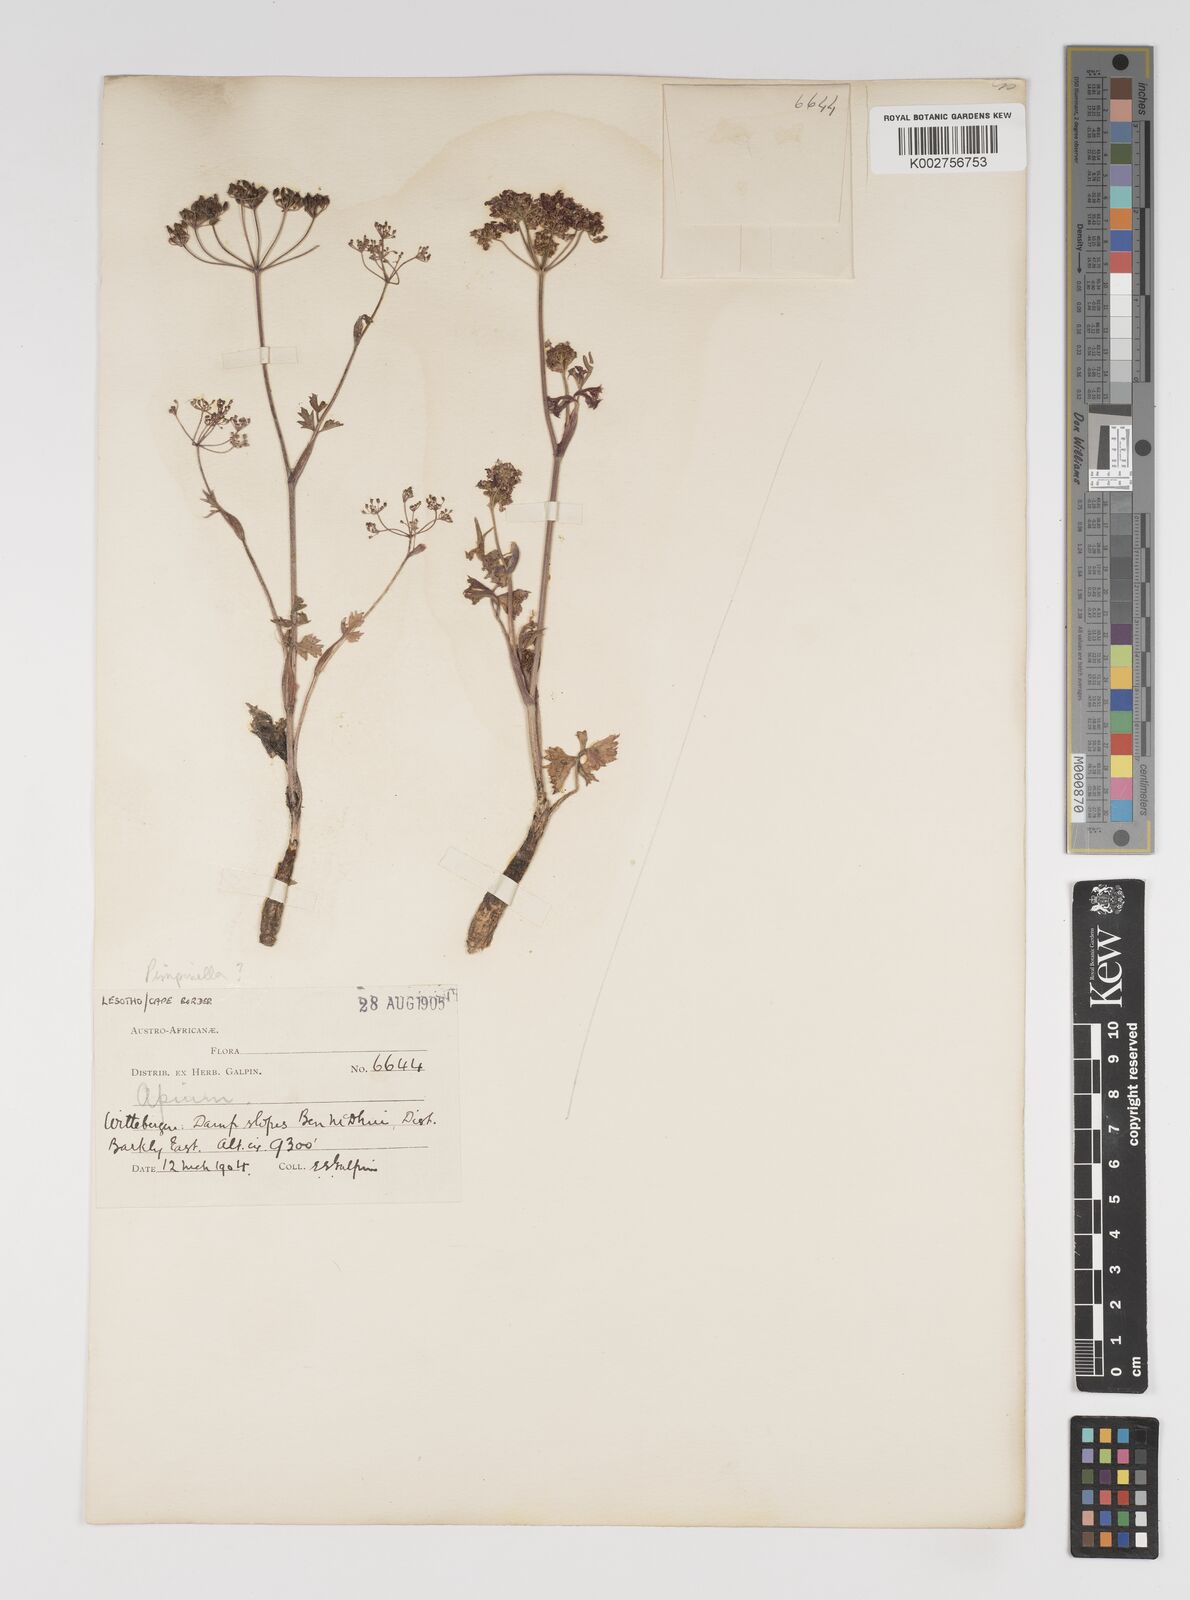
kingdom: Plantae
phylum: Tracheophyta
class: Magnoliopsida
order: Apiales
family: Apiaceae
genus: Pimpinella
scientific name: Pimpinella
